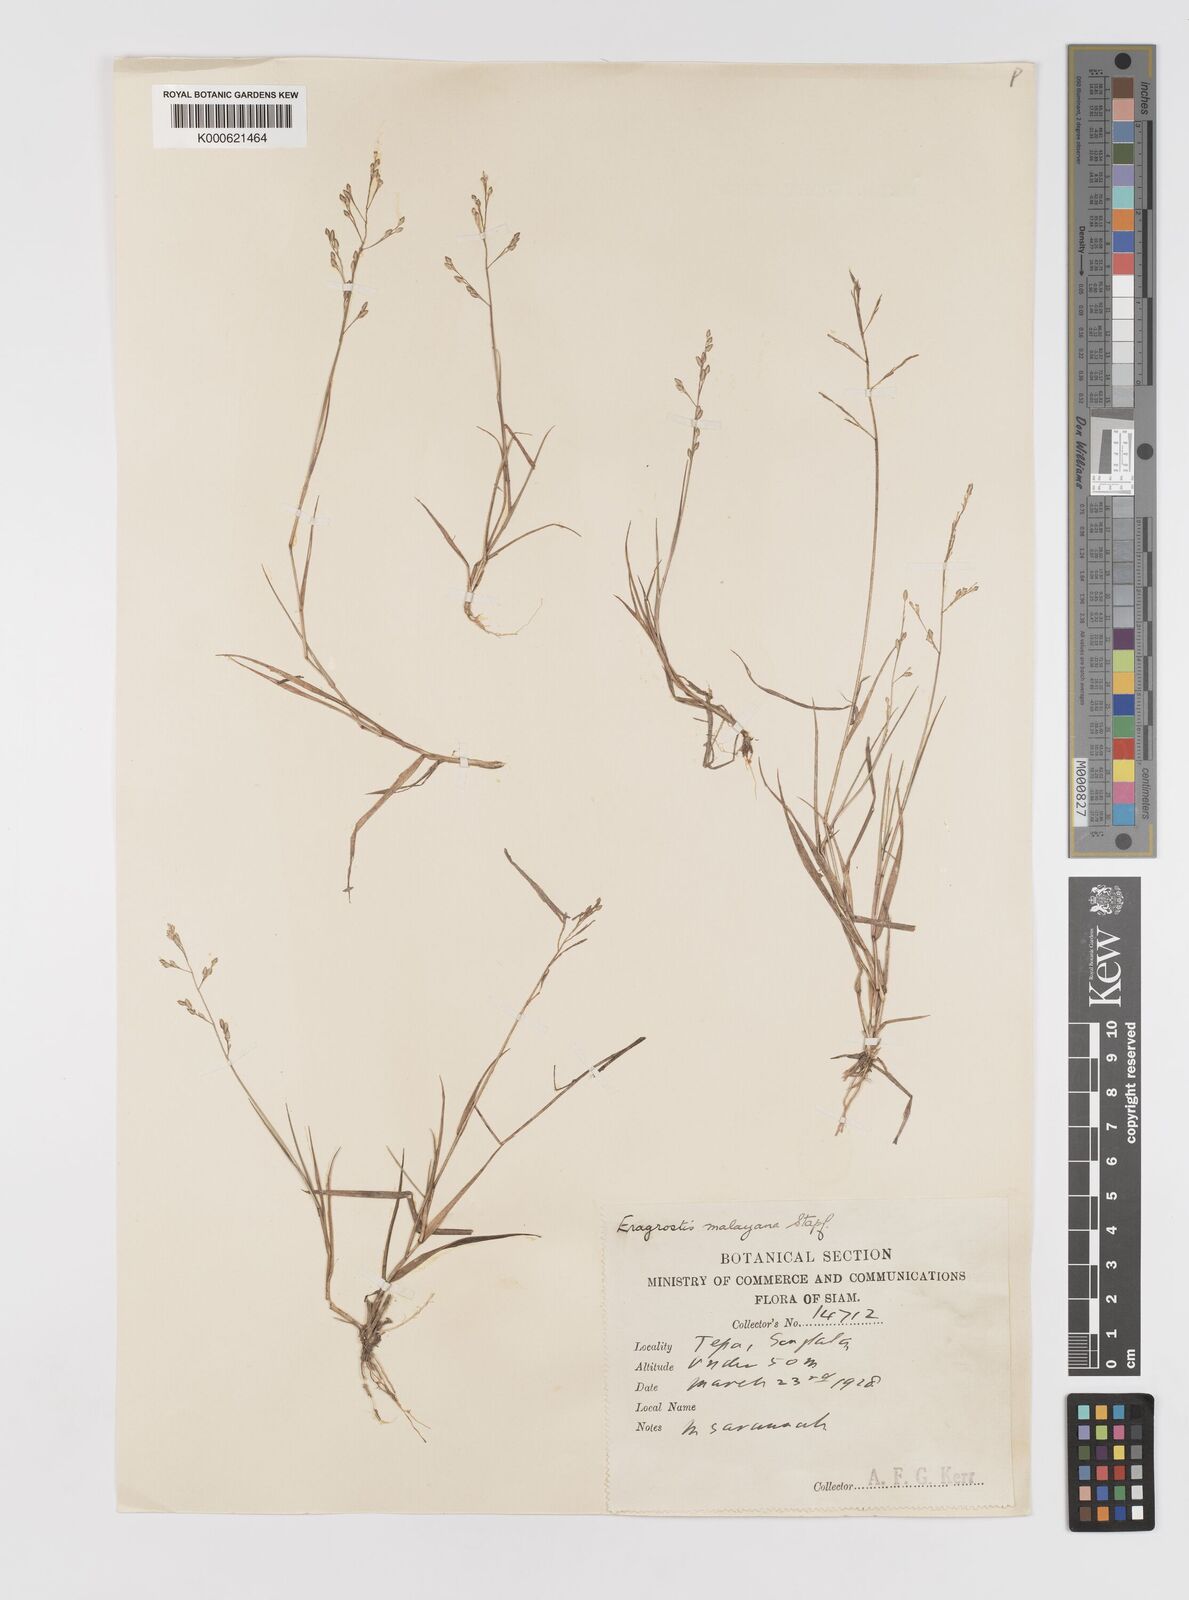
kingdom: Plantae
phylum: Tracheophyta
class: Liliopsida
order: Poales
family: Poaceae
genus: Eragrostis
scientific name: Eragrostis montana
